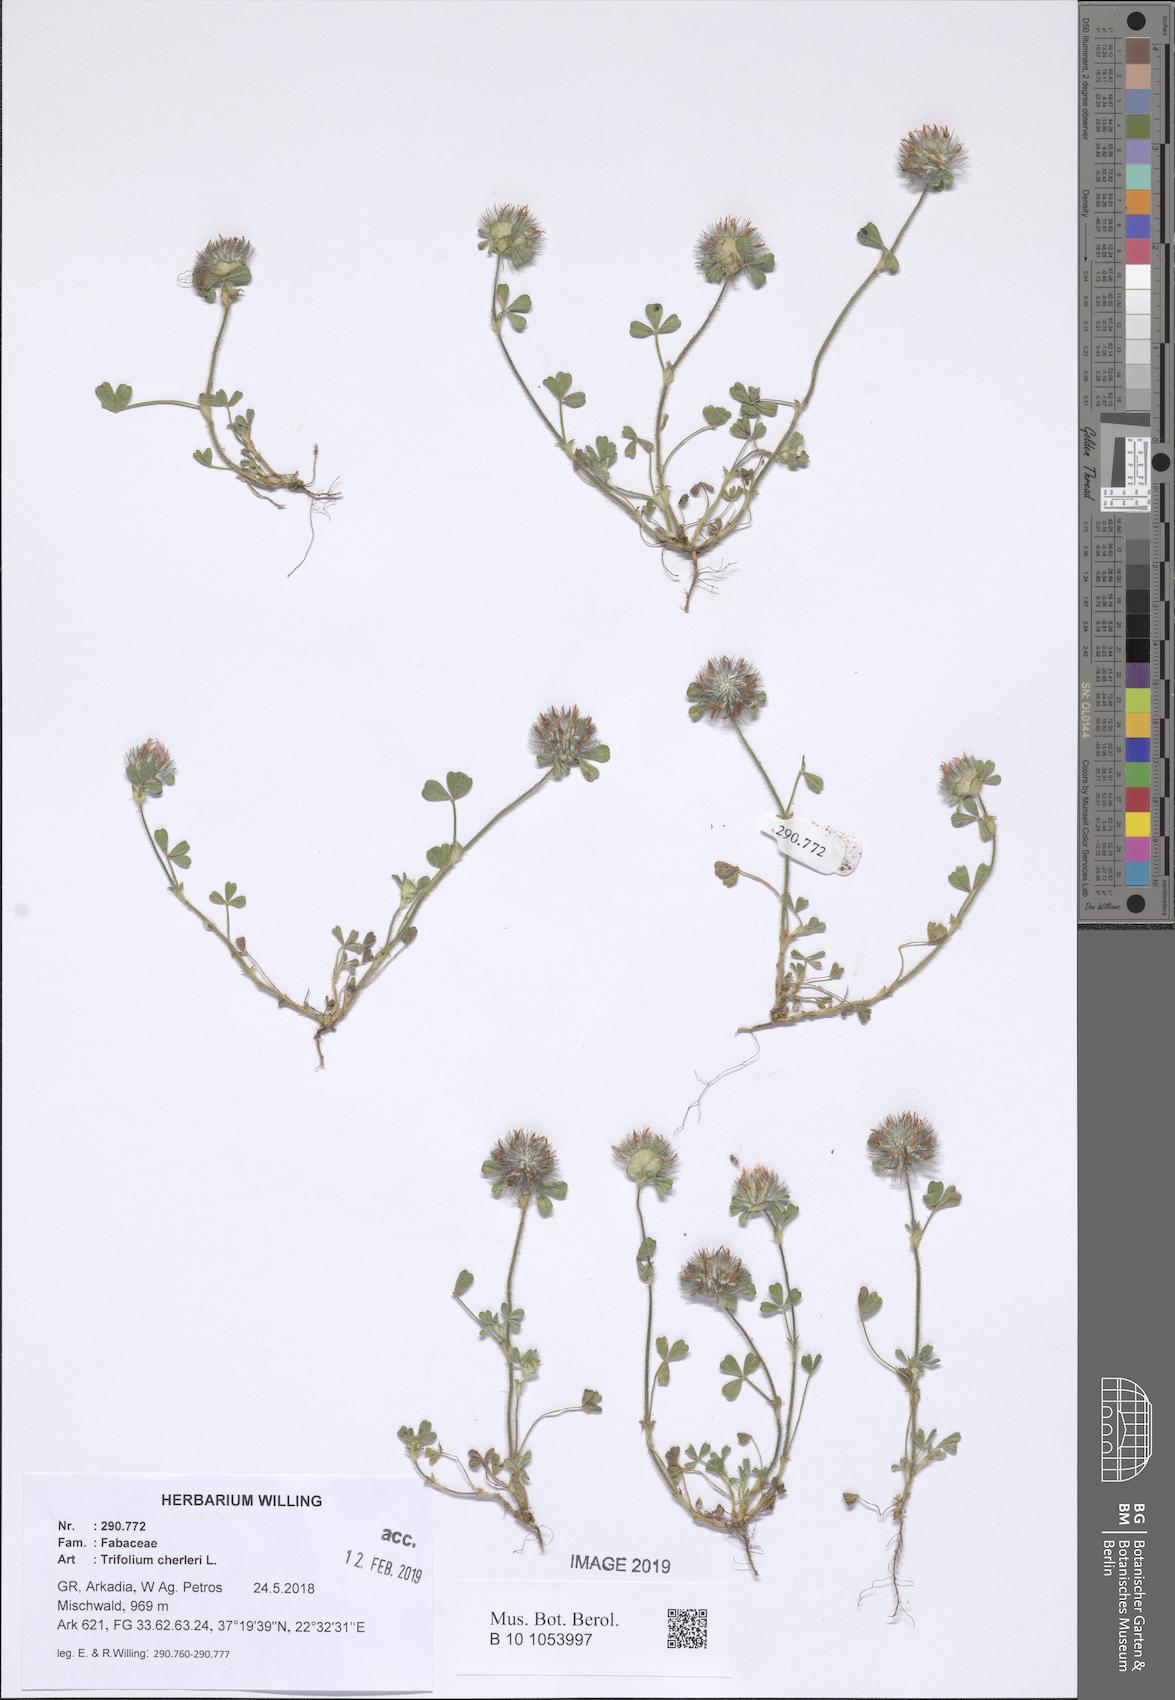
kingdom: Plantae
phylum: Tracheophyta
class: Magnoliopsida
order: Fabales
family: Fabaceae
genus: Trifolium
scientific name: Trifolium cherleri
